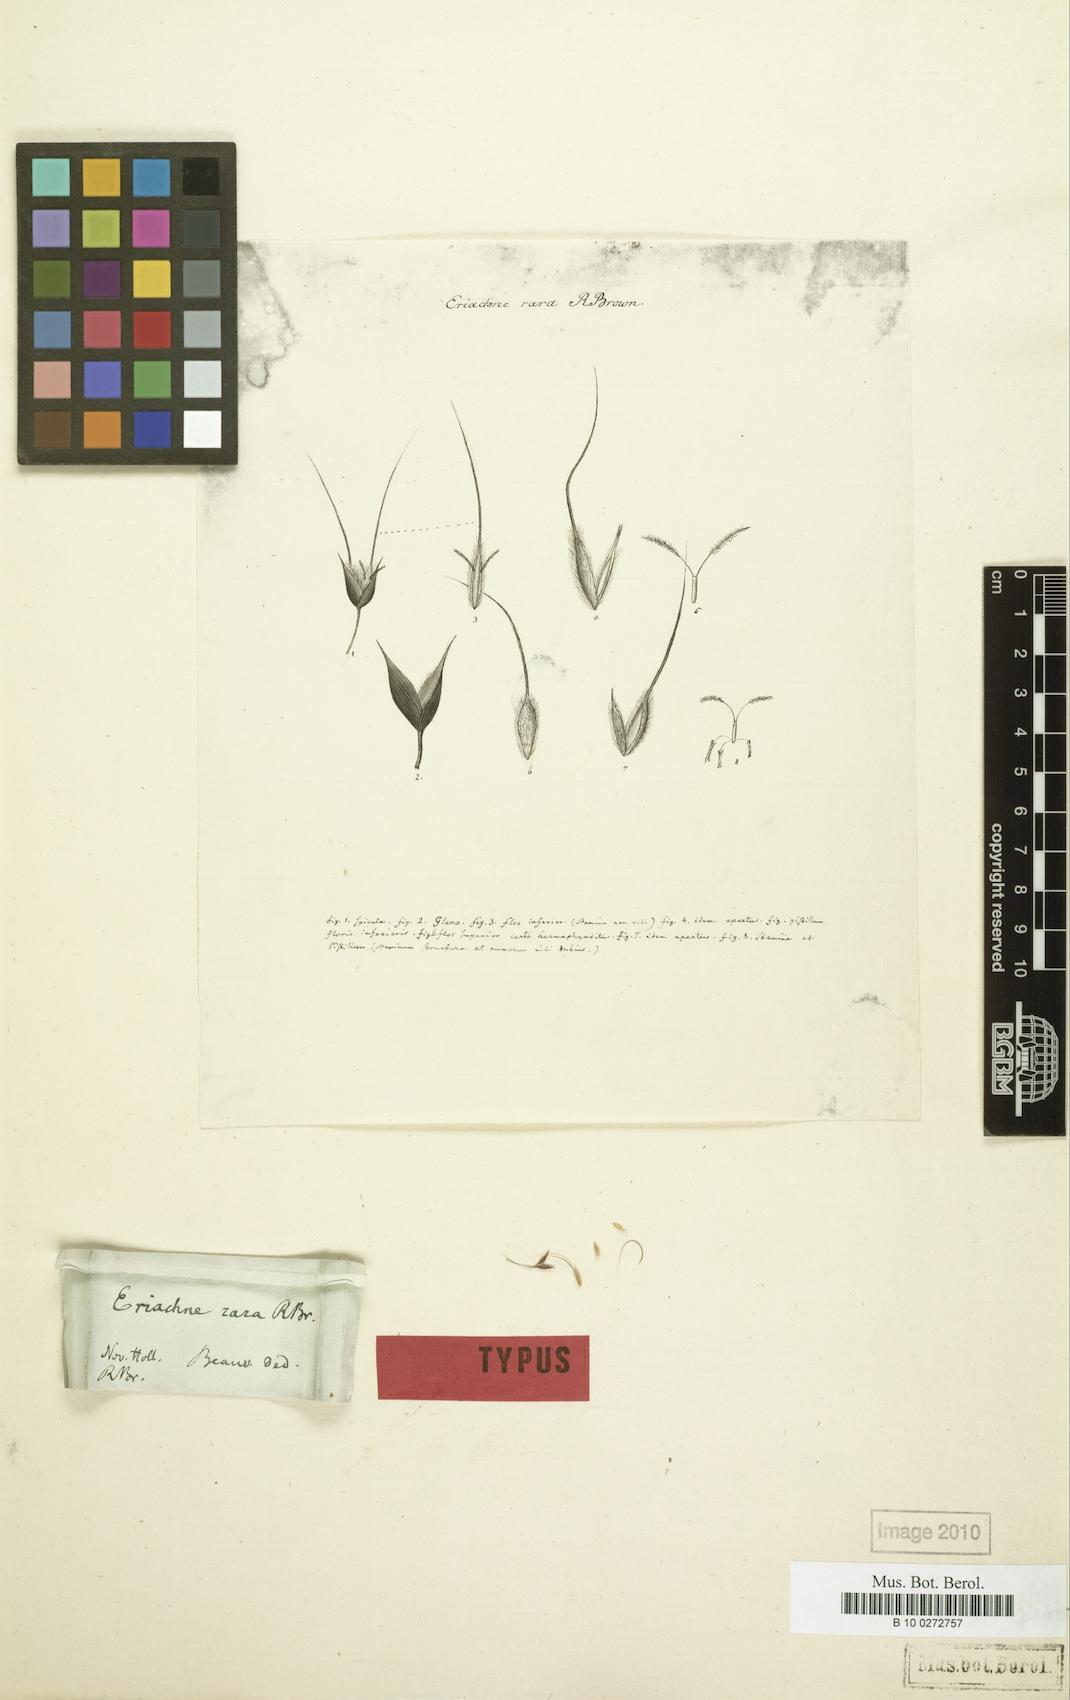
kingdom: Plantae
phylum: Tracheophyta
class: Liliopsida
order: Poales
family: Poaceae
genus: Eriachne
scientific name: Eriachne rara
